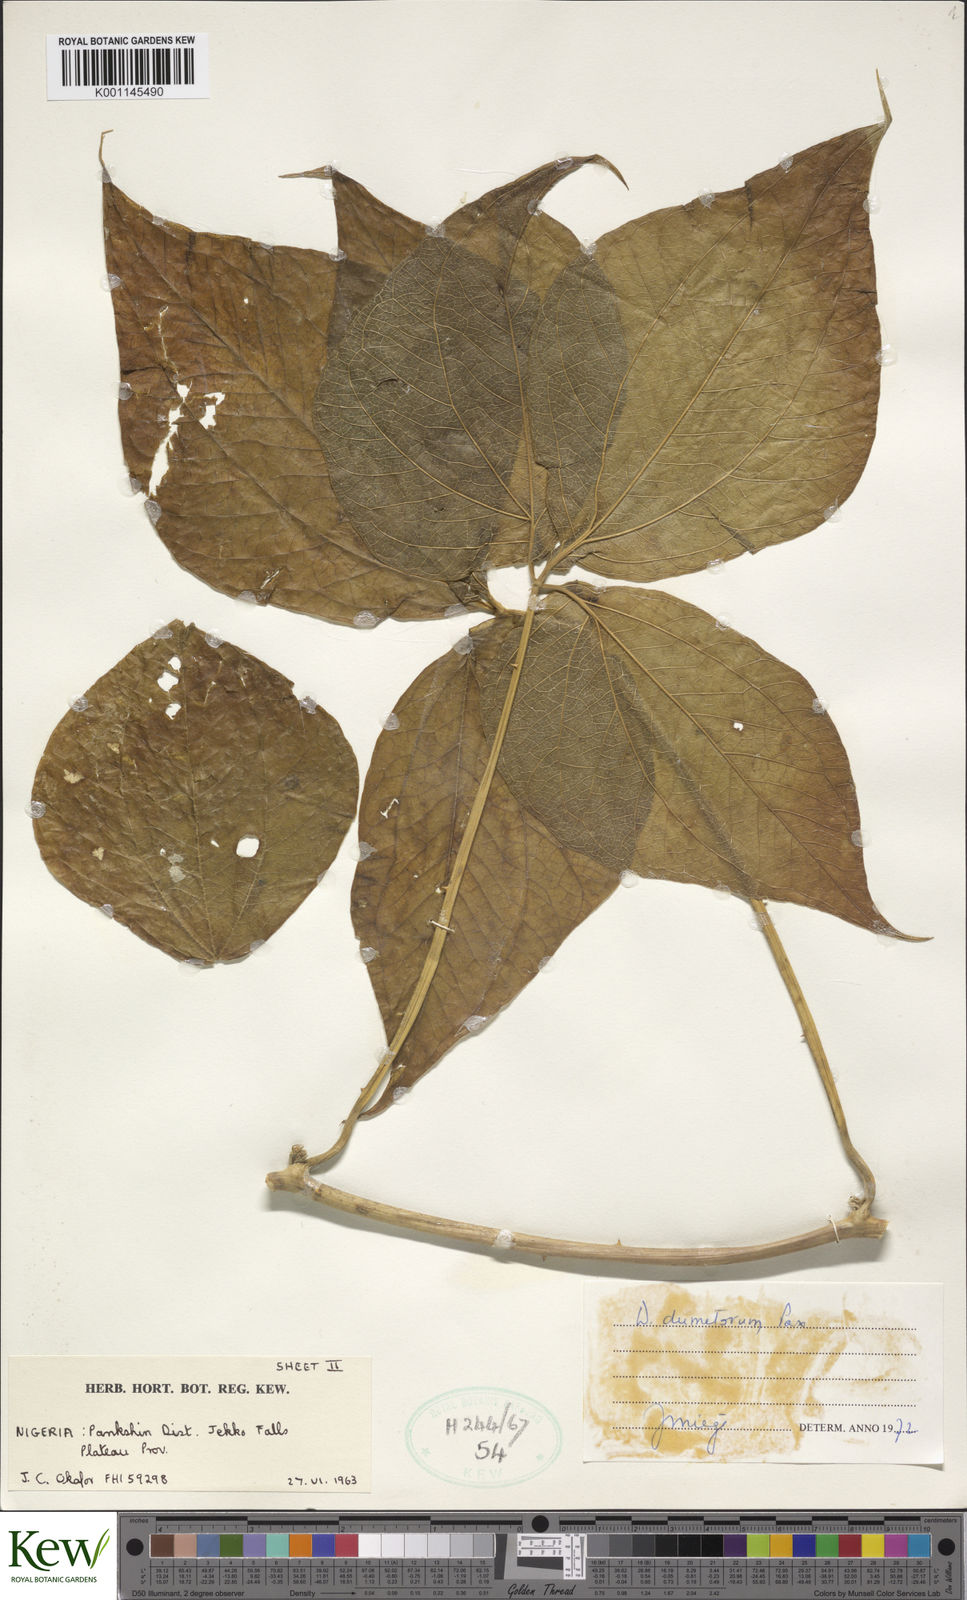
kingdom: Plantae
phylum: Tracheophyta
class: Liliopsida
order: Dioscoreales
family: Dioscoreaceae
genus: Dioscorea
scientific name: Dioscorea dumetorum
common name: African bitter yam
